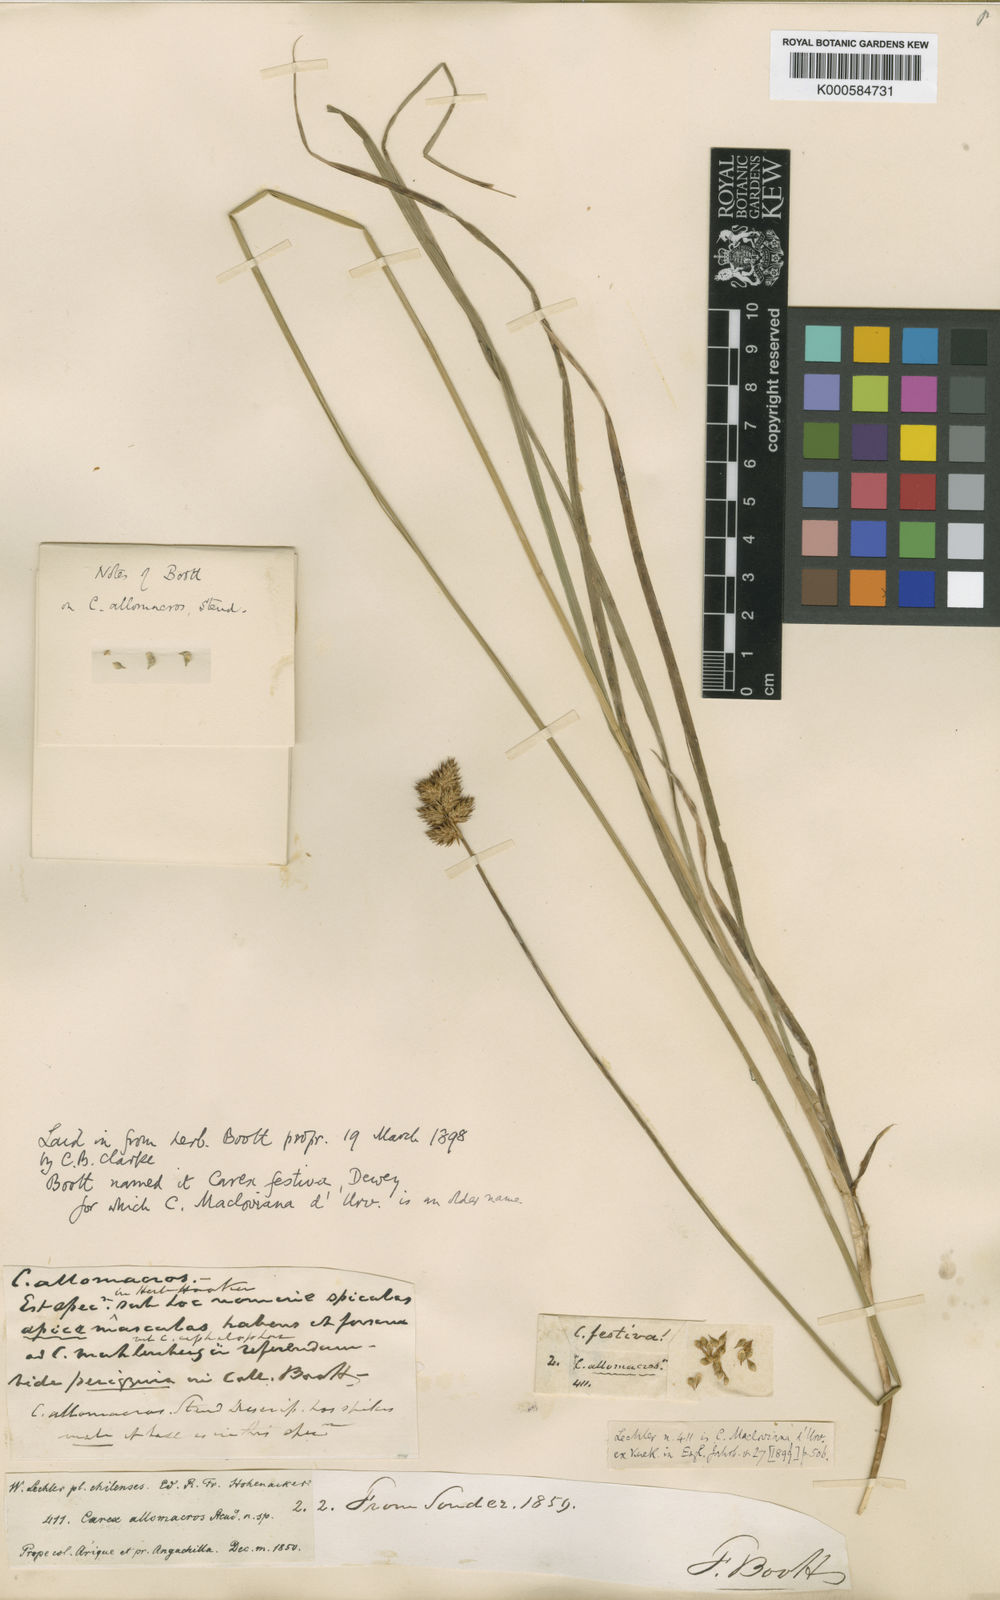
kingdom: Plantae
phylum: Tracheophyta
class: Liliopsida
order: Poales
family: Cyperaceae
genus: Carex
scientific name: Carex macloviana
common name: Falkland island sedge
